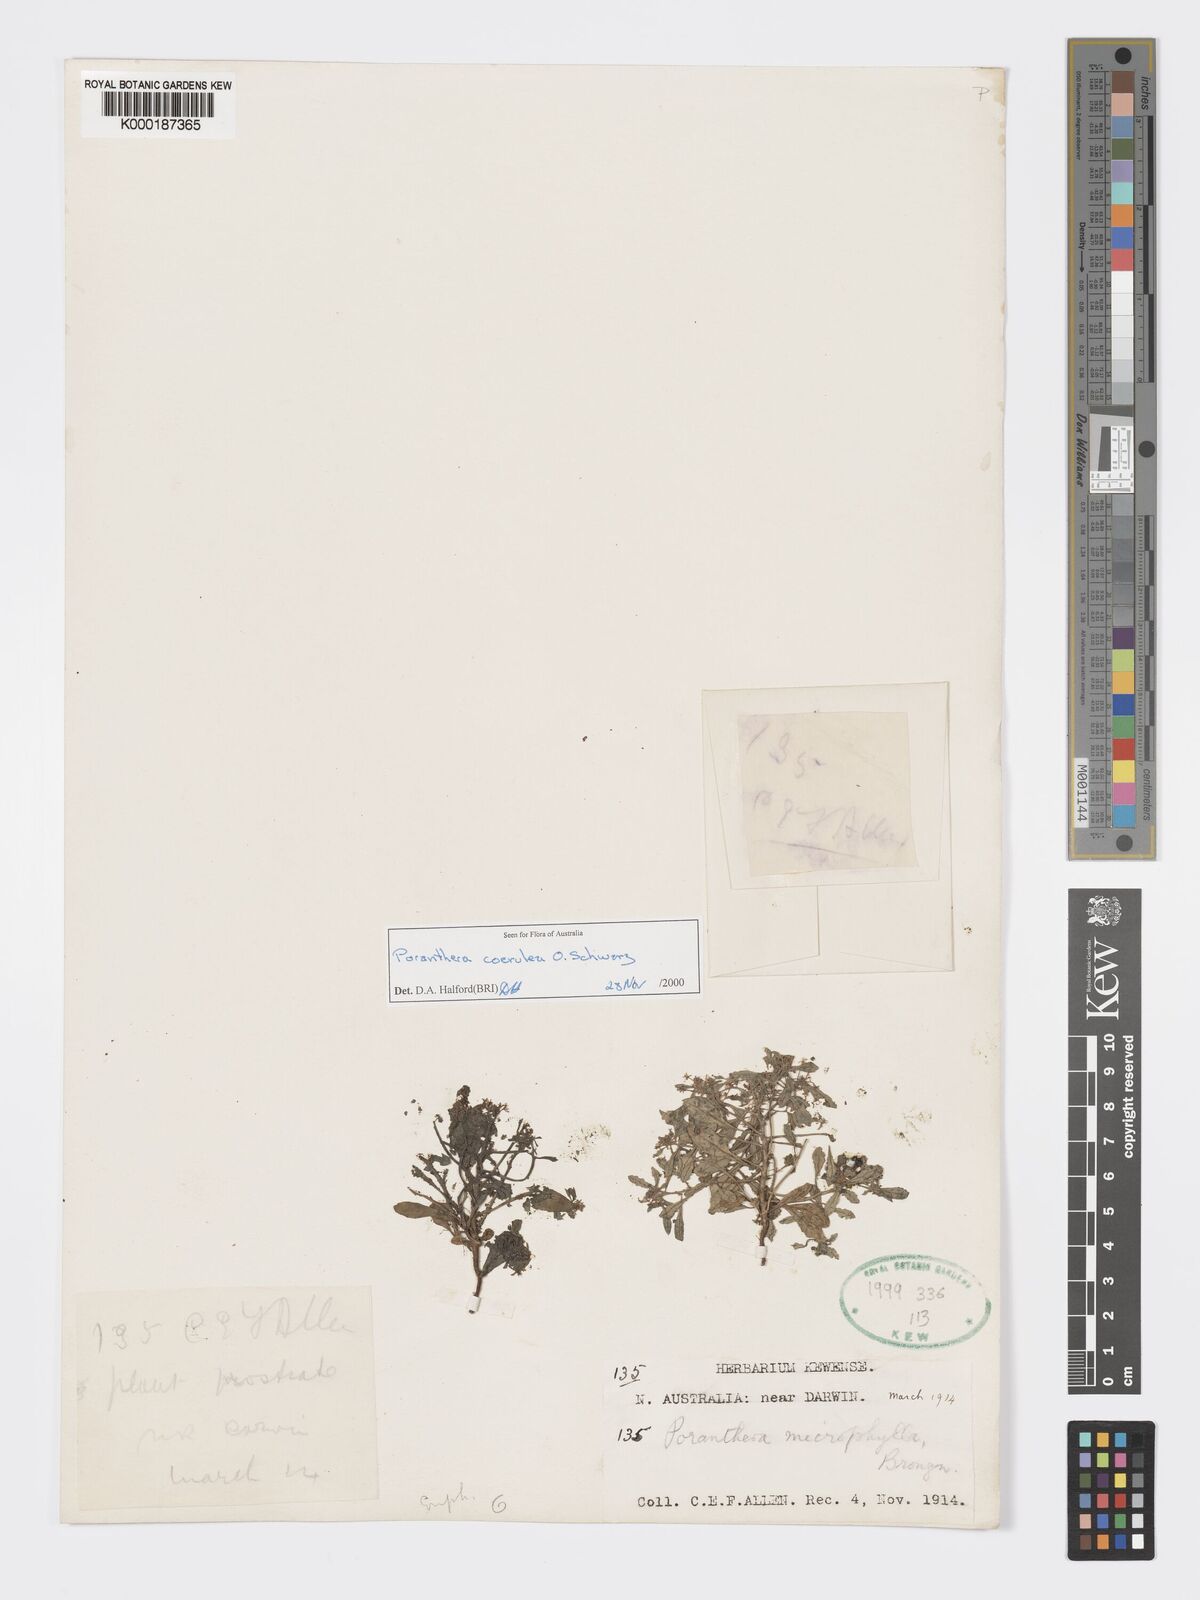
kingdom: Plantae
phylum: Tracheophyta
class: Magnoliopsida
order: Malpighiales
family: Phyllanthaceae
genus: Poranthera
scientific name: Poranthera coerulea
